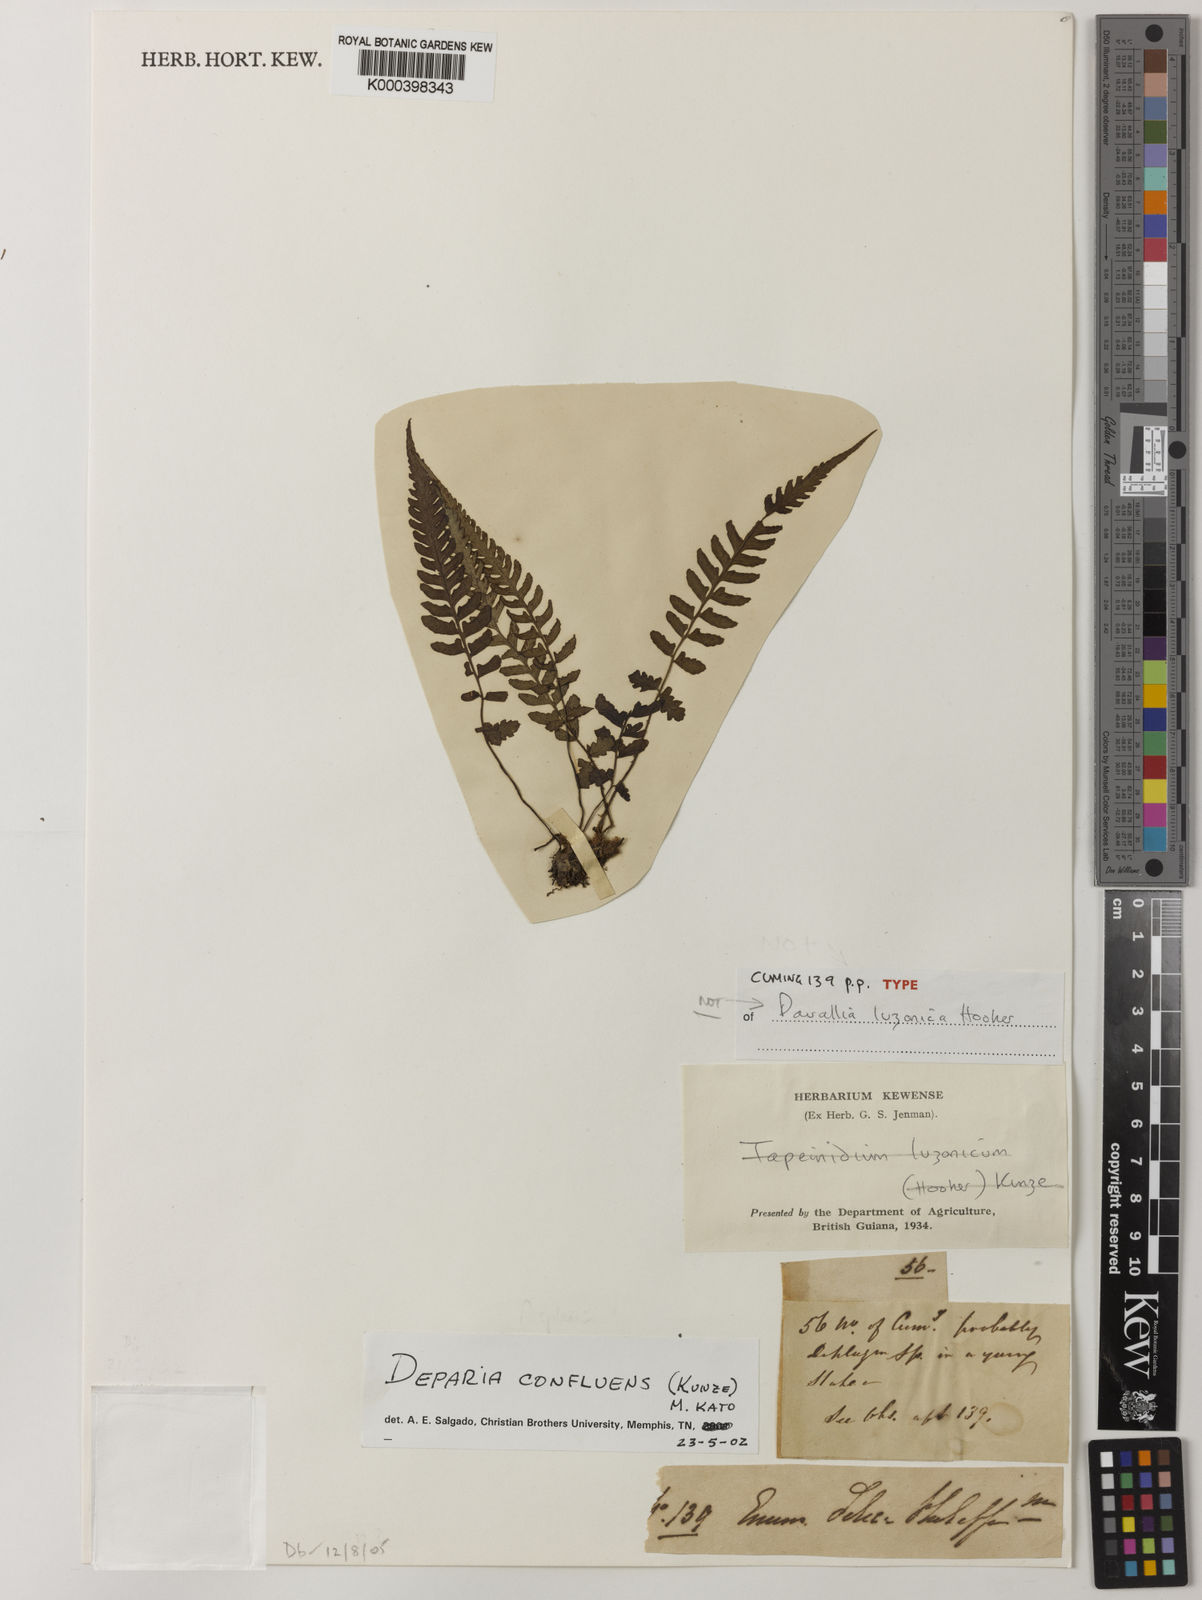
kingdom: Plantae
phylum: Tracheophyta
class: Polypodiopsida
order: Polypodiales
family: Athyriaceae
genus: Deparia
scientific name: Deparia
